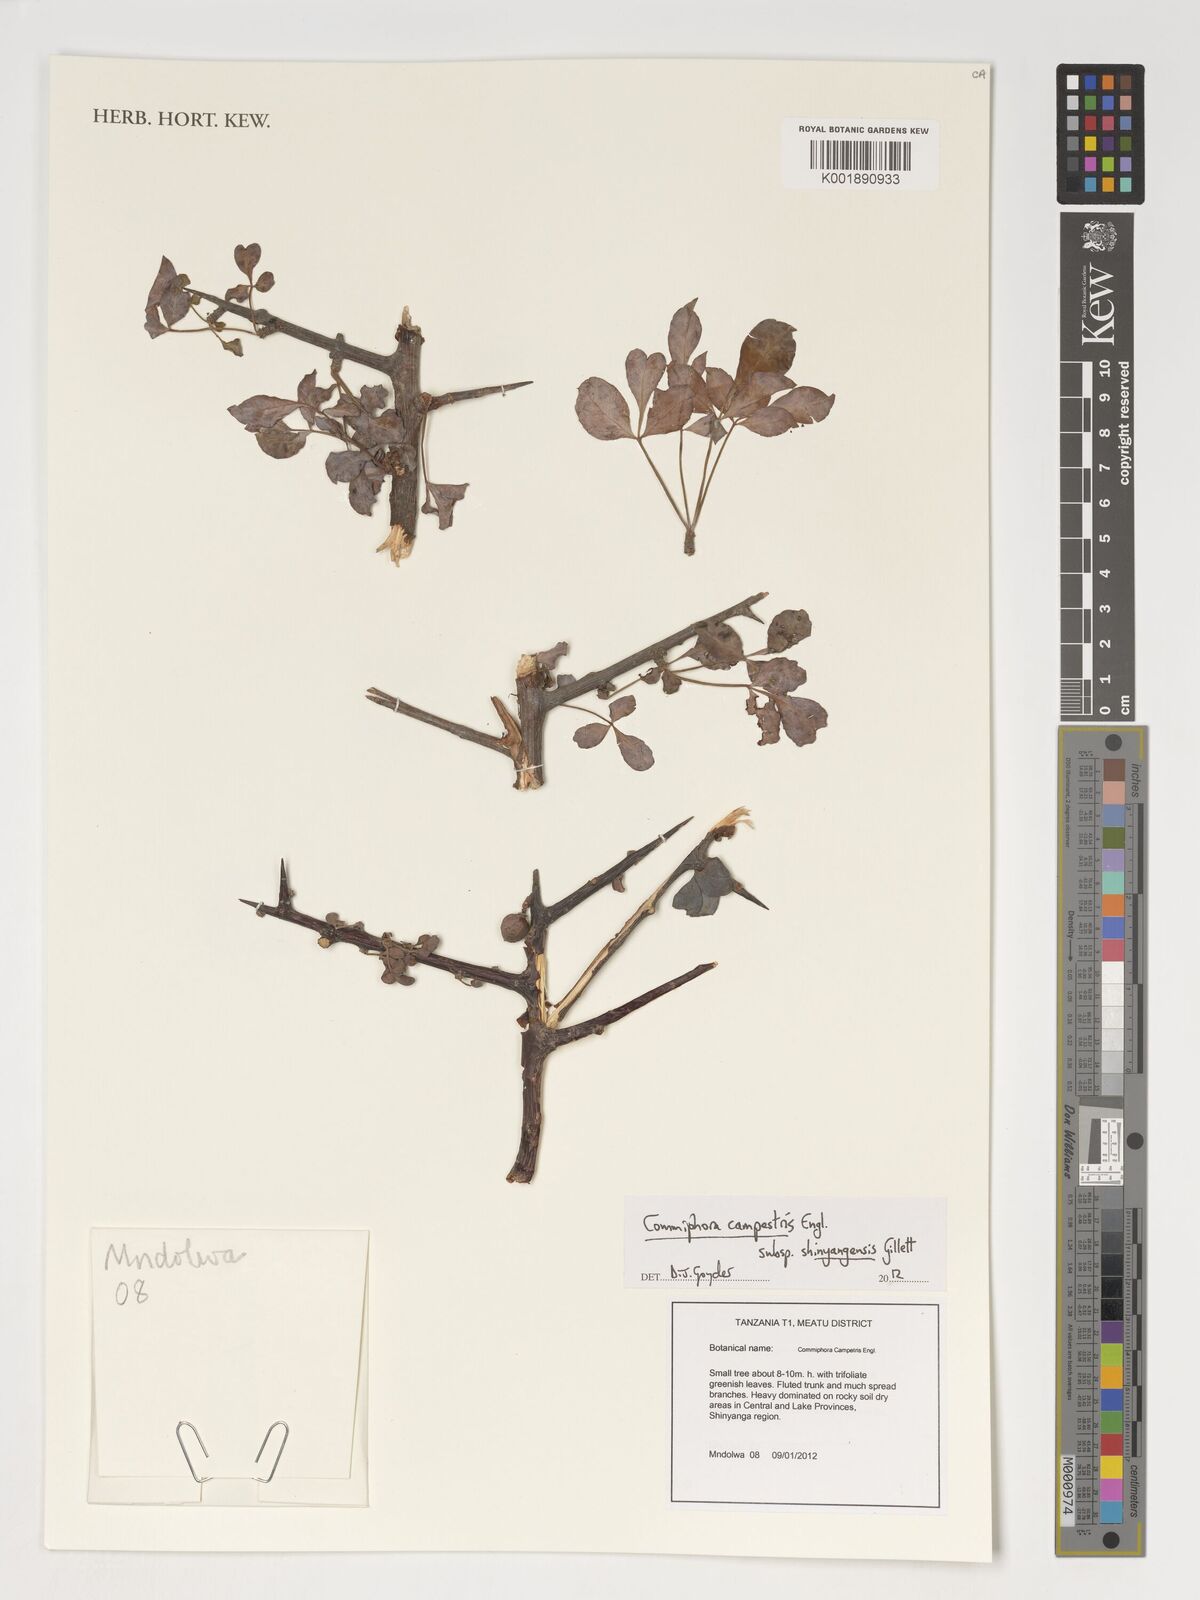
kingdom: Plantae
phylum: Tracheophyta
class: Magnoliopsida
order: Sapindales
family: Burseraceae
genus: Commiphora
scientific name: Commiphora campestris
